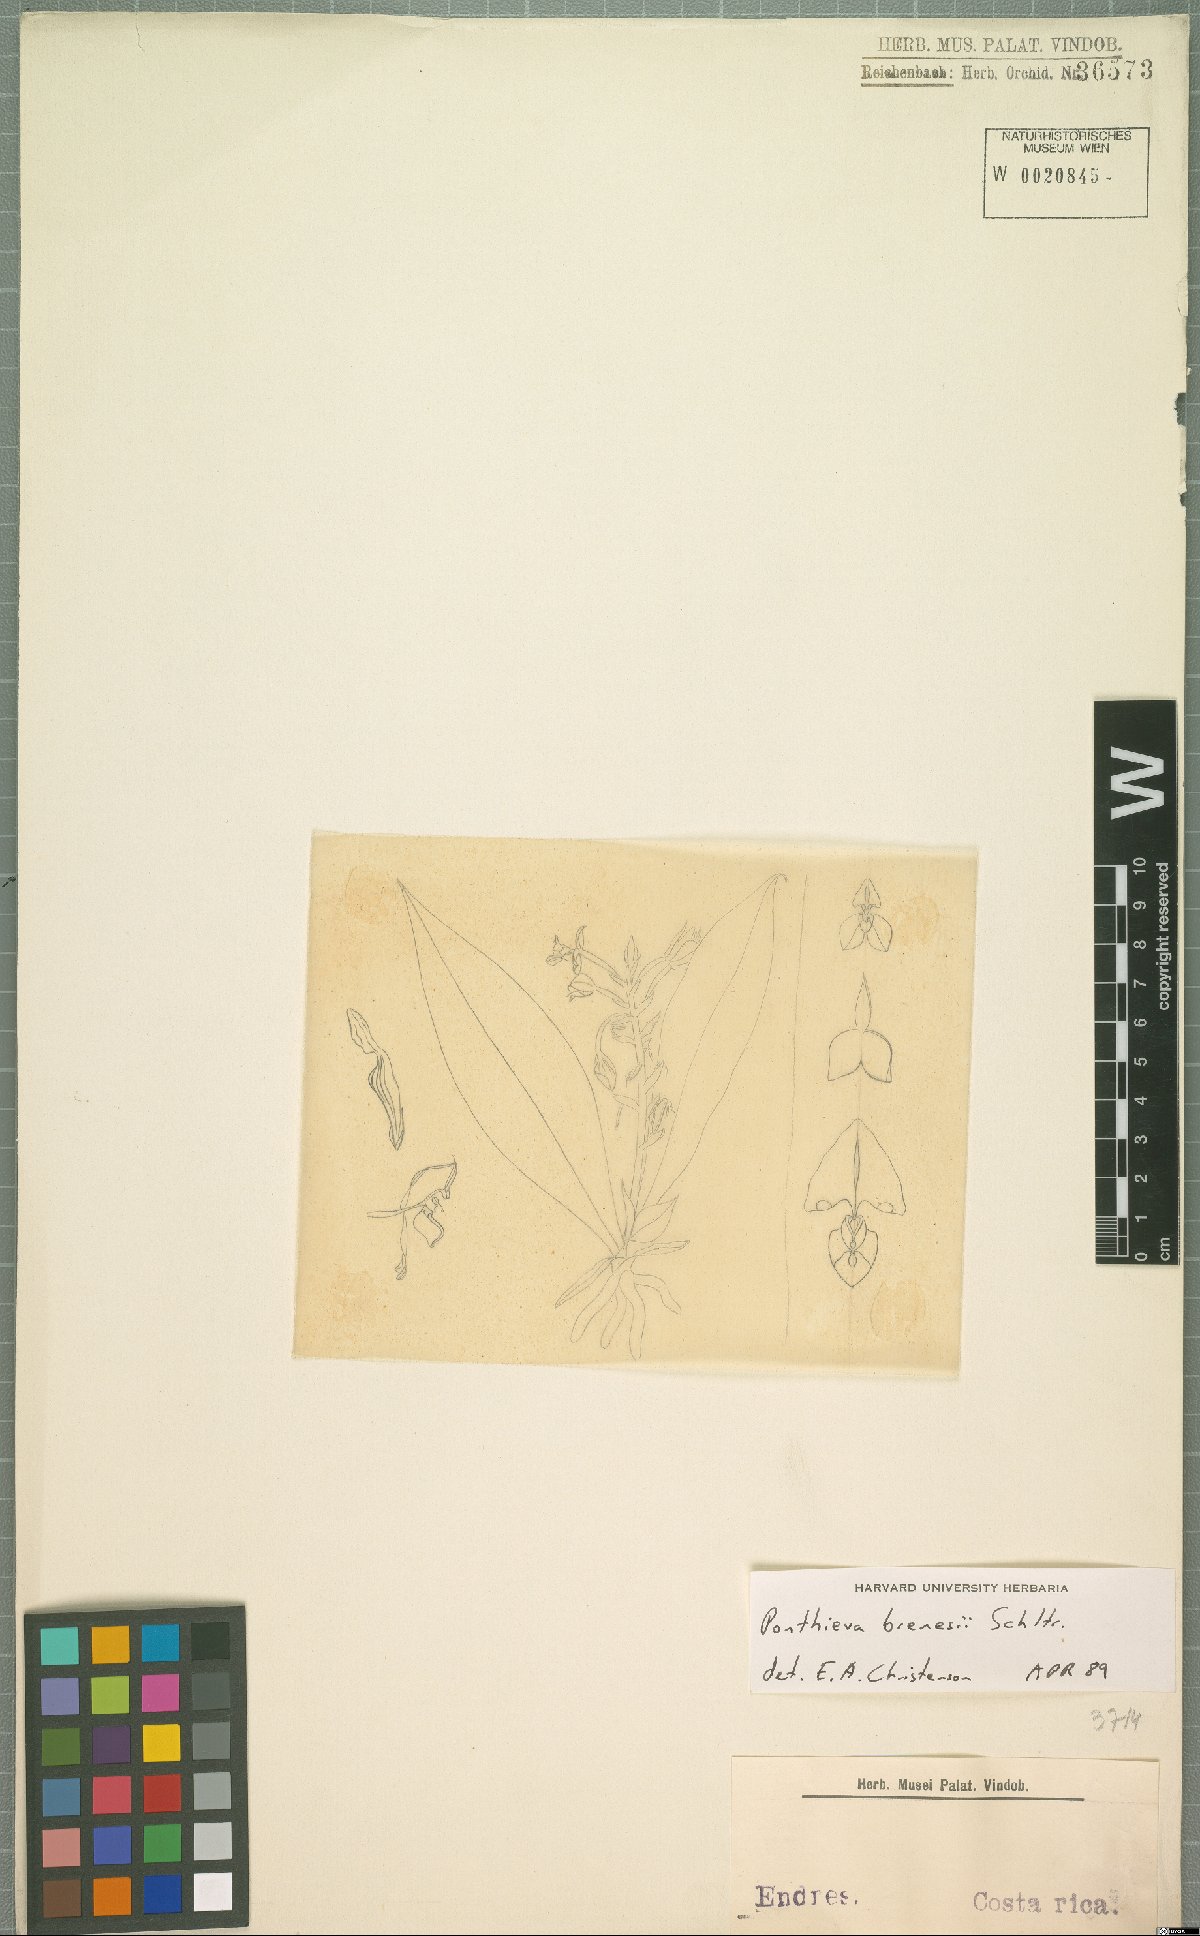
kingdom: Plantae
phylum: Tracheophyta
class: Liliopsida
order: Asparagales
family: Orchidaceae
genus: Ponthieva
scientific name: Ponthieva villosa
